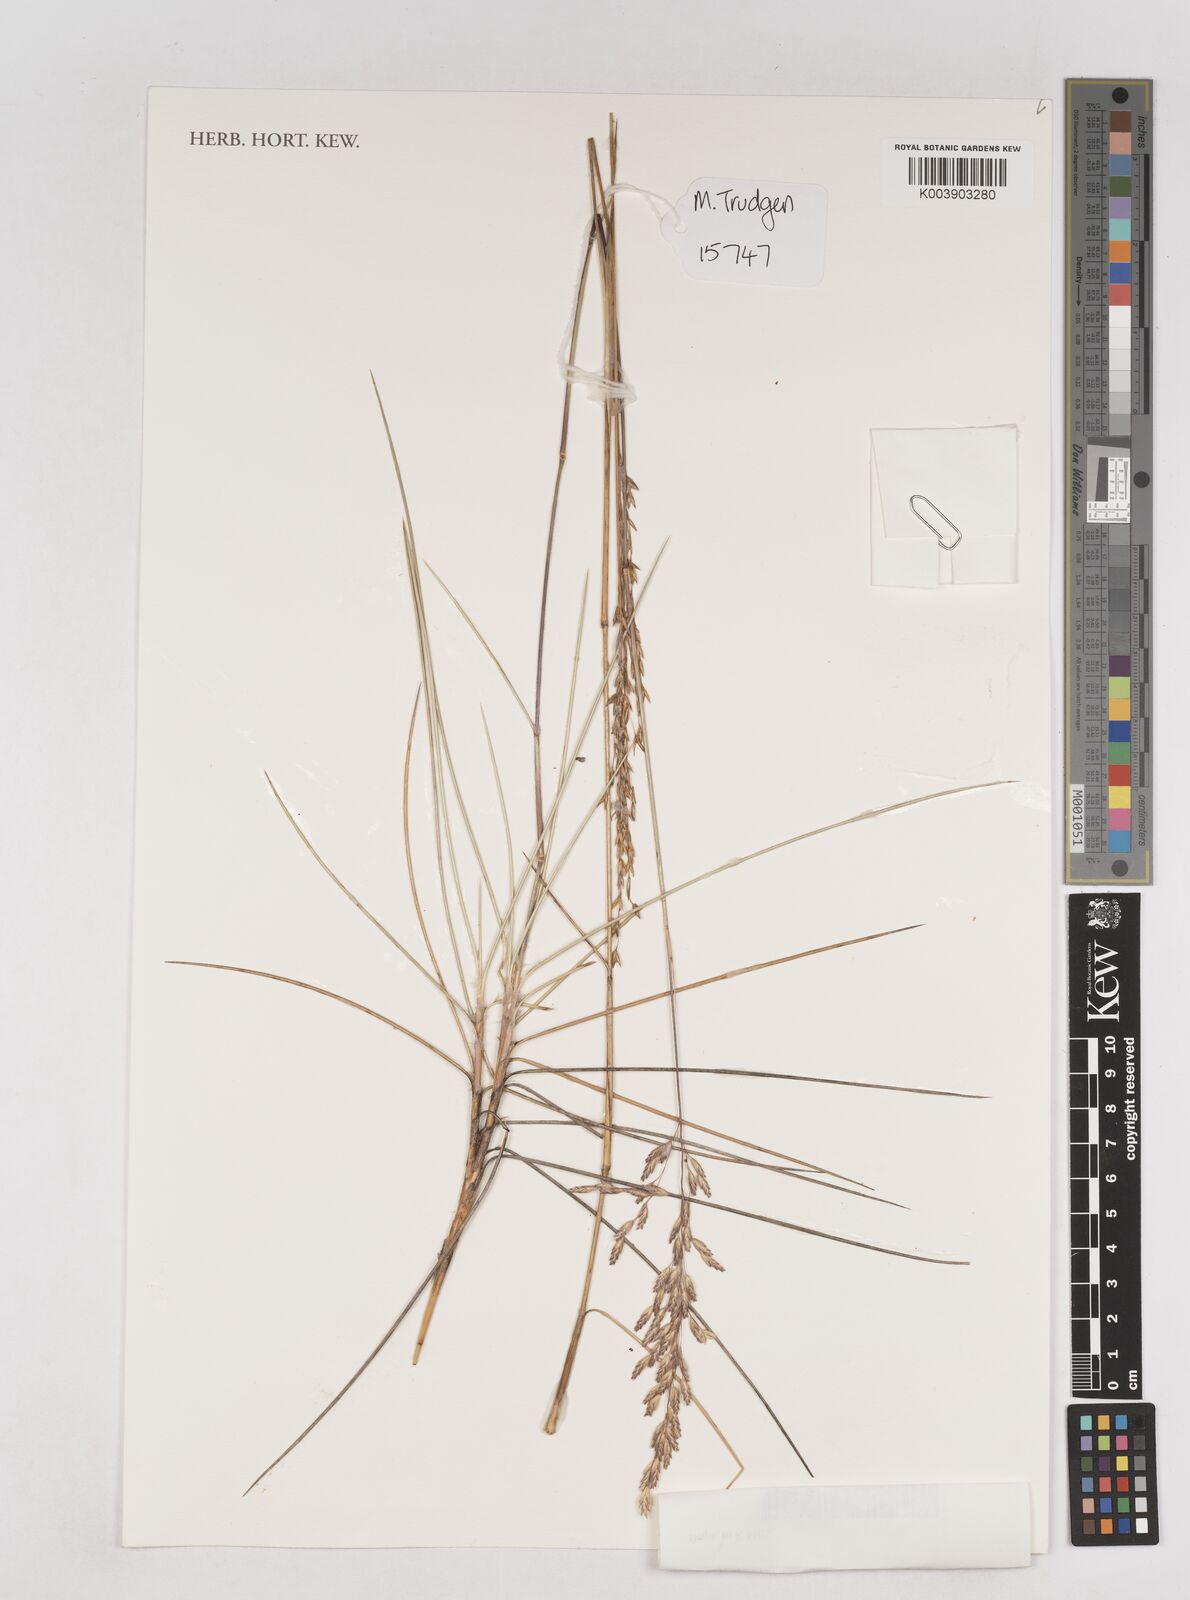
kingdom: Plantae
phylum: Tracheophyta
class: Liliopsida
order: Poales
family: Poaceae
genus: Triodia
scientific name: Triodia wiseana
